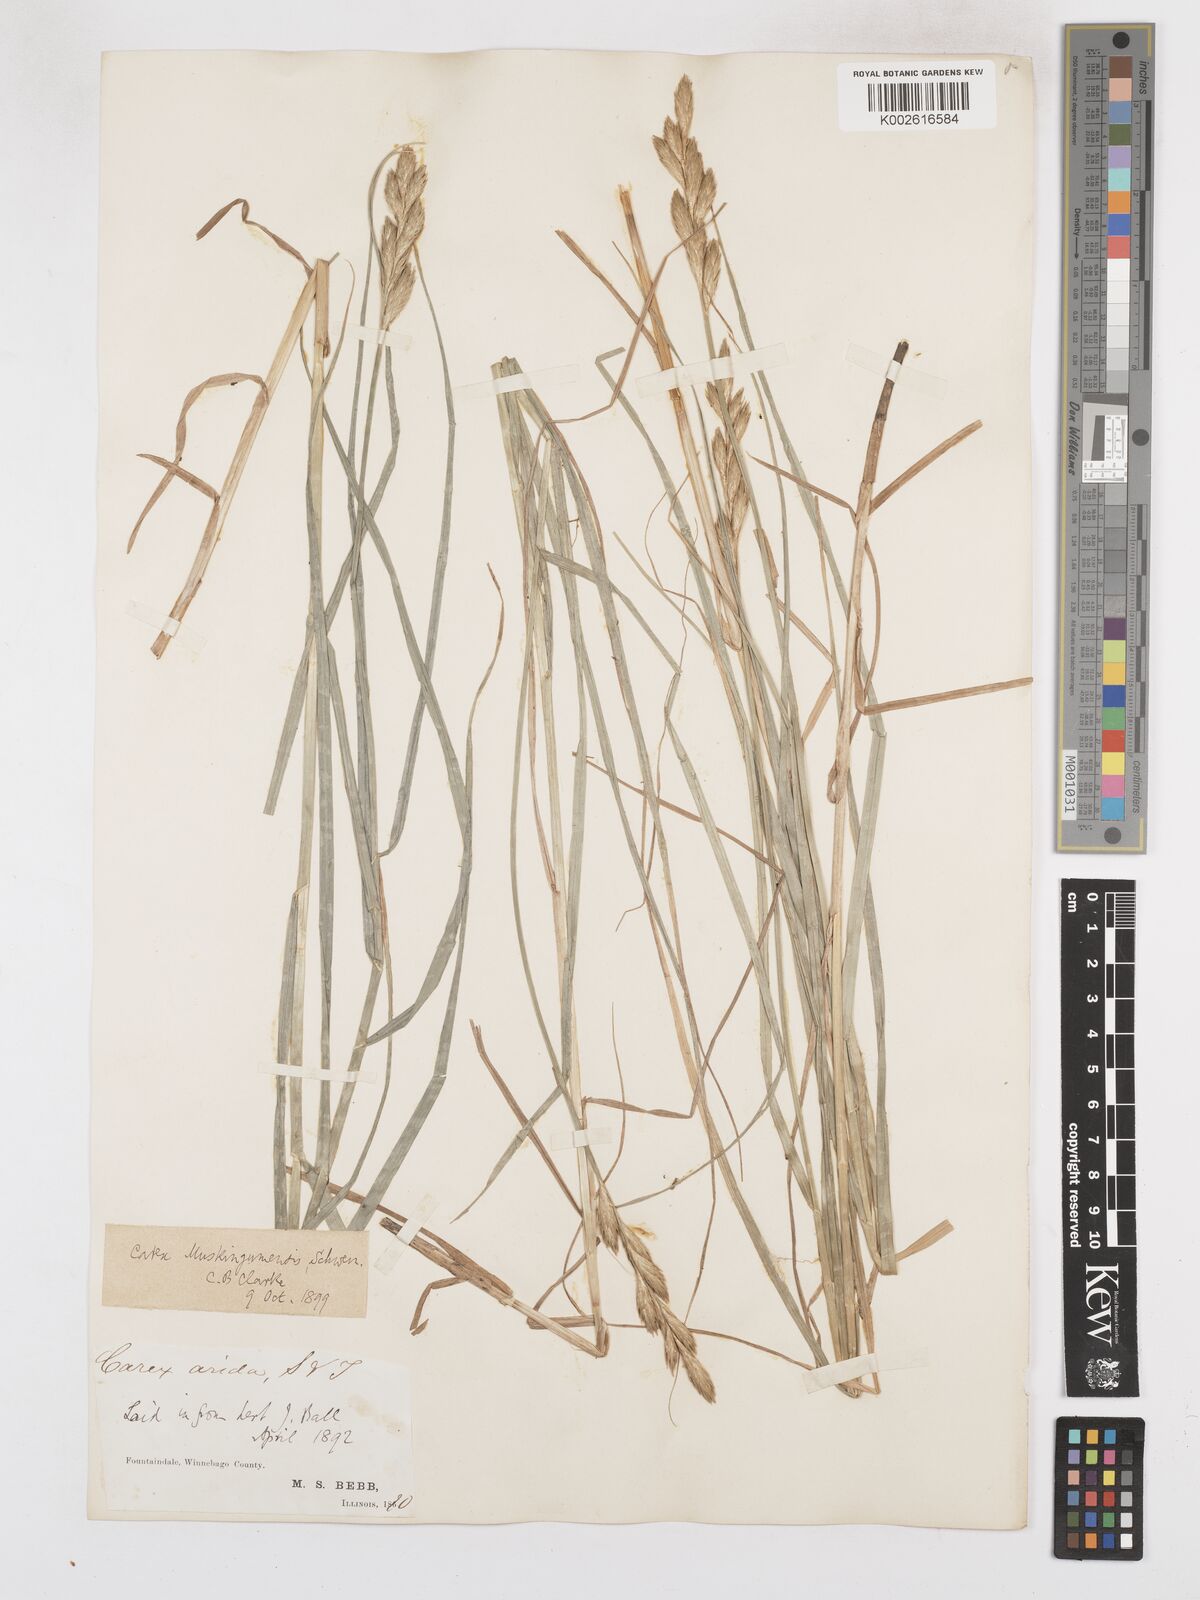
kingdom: Plantae
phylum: Tracheophyta
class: Liliopsida
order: Poales
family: Cyperaceae
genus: Carex
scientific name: Carex muskingumensis
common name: Muskingum sedge
